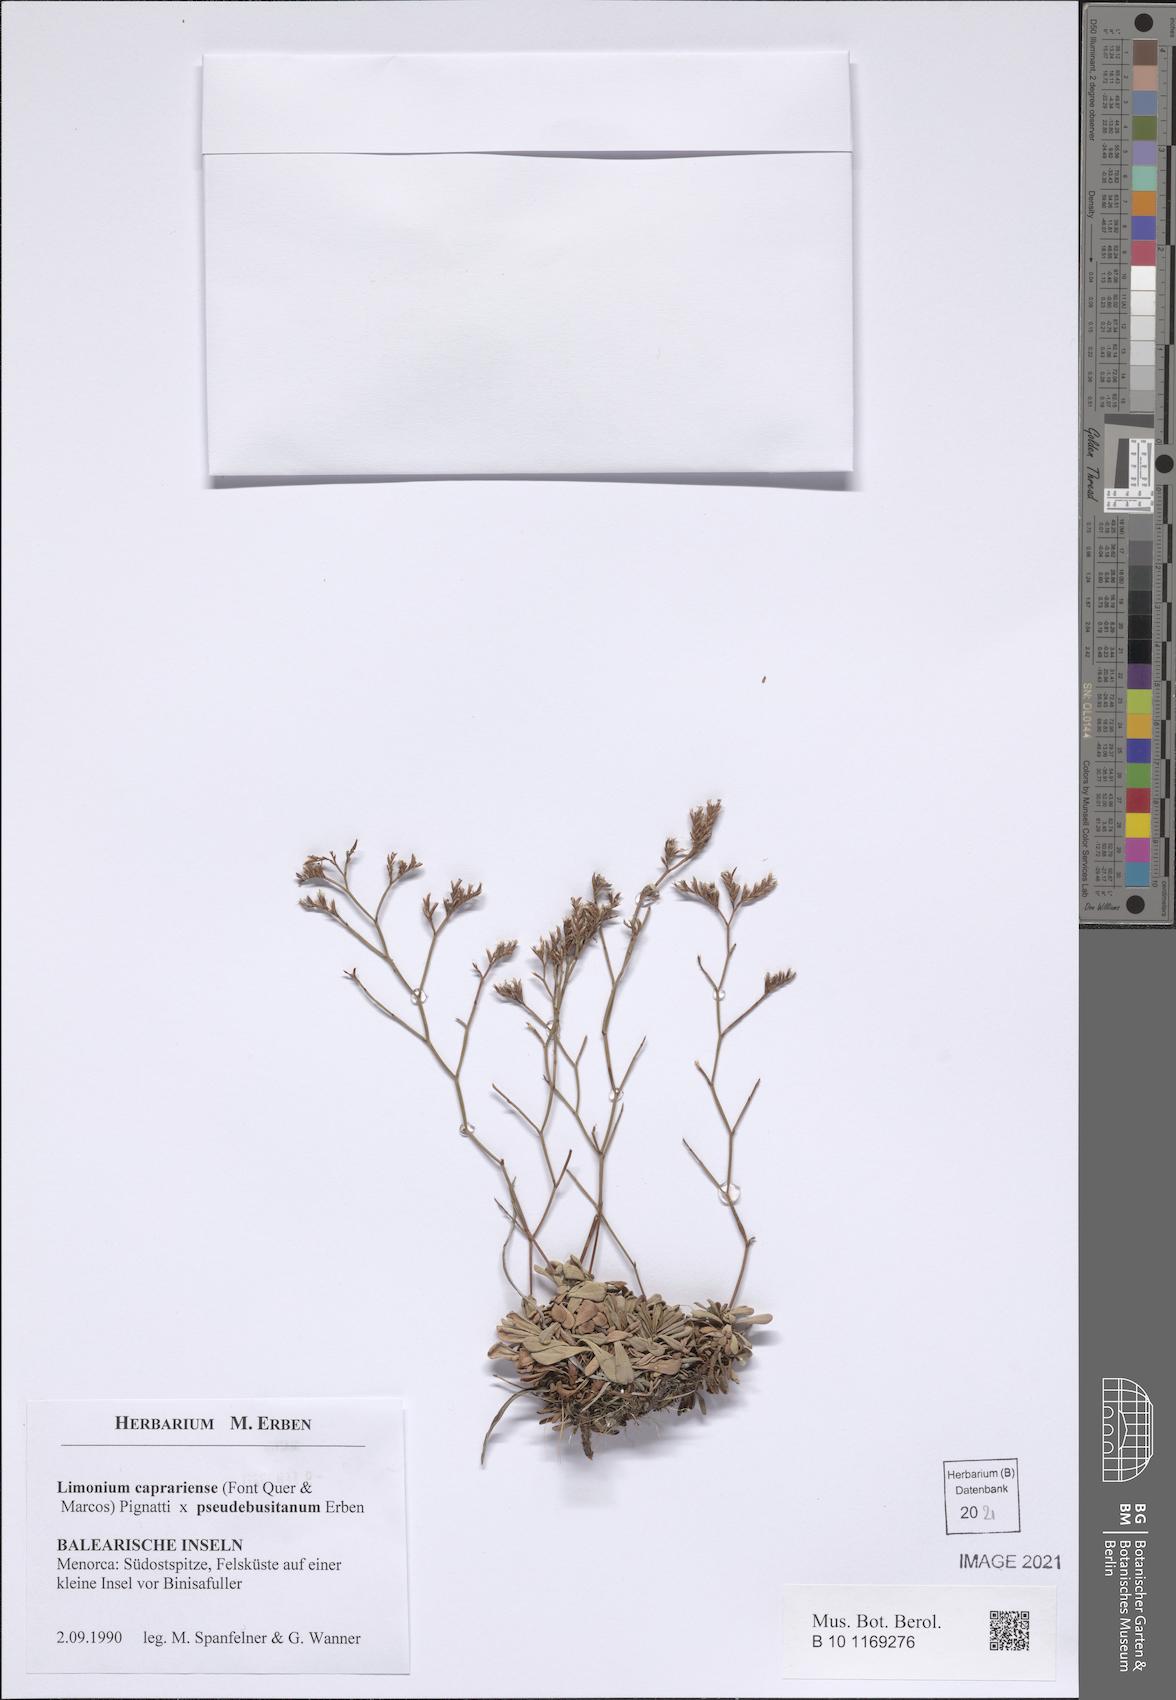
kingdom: Plantae
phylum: Tracheophyta
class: Magnoliopsida
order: Caryophyllales
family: Plumbaginaceae
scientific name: Plumbaginaceae
